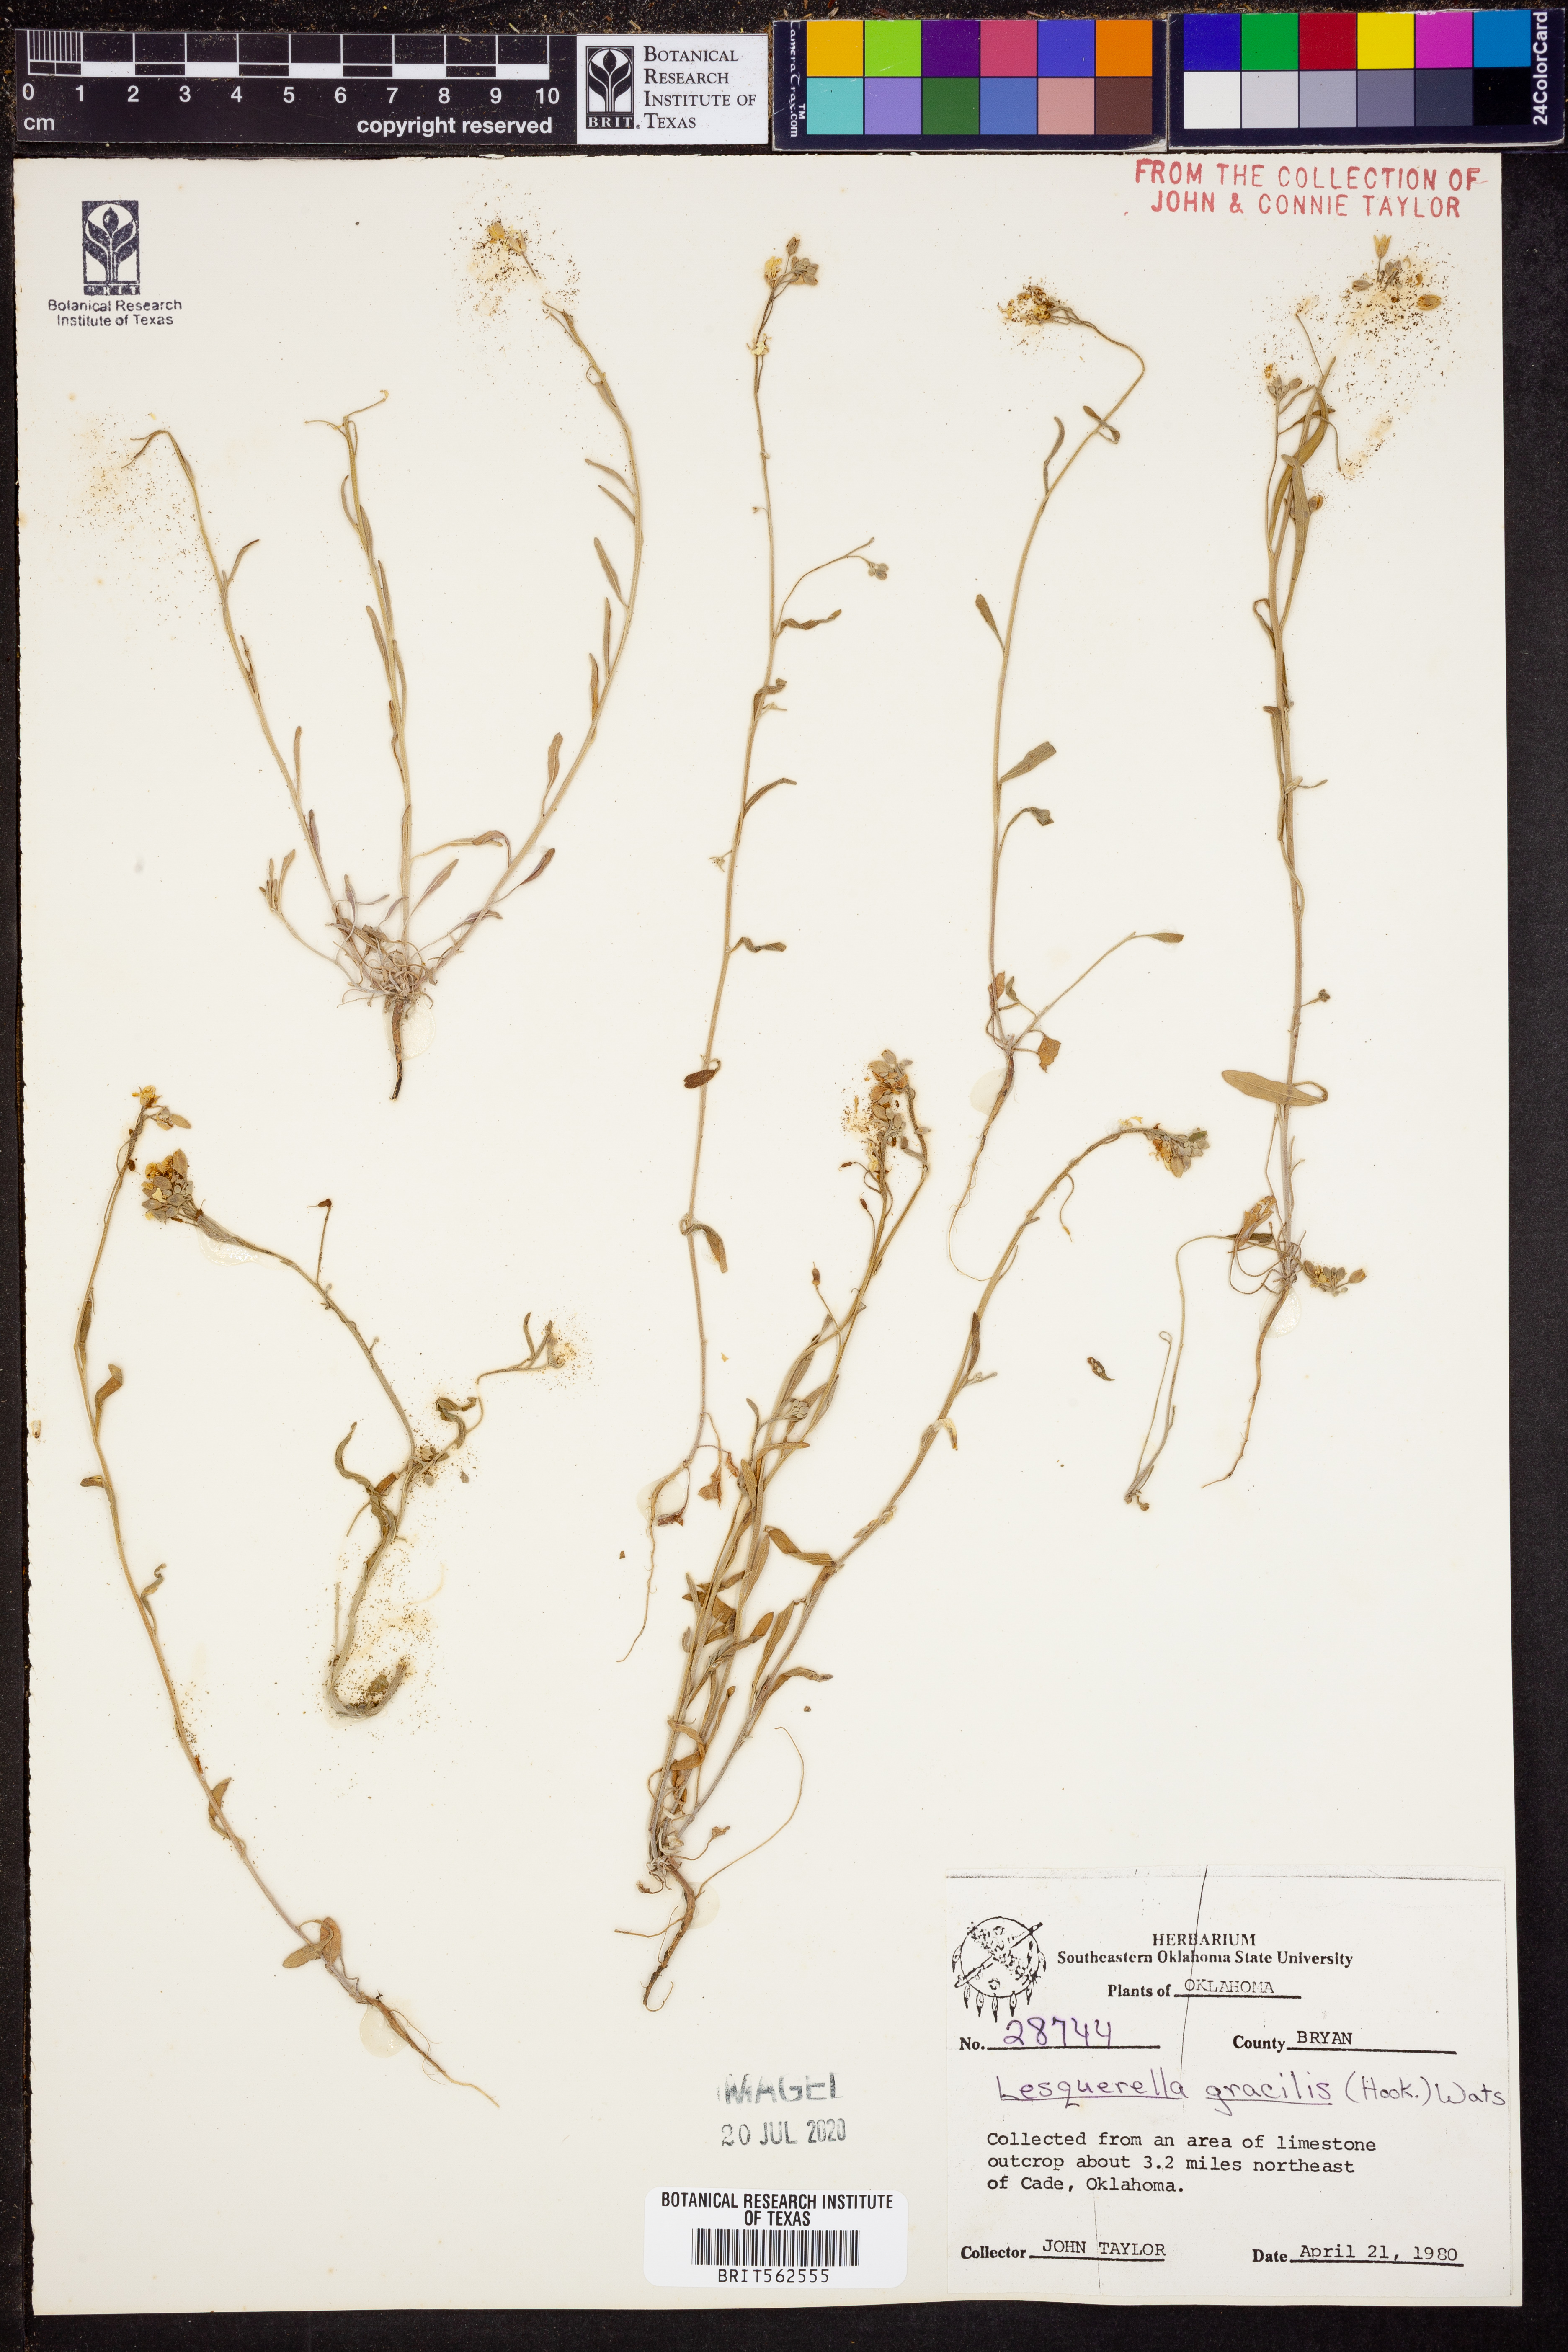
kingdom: Plantae
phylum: Tracheophyta
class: Magnoliopsida
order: Brassicales
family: Brassicaceae
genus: Physaria
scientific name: Physaria gracilis
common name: Spreading bladderpod
